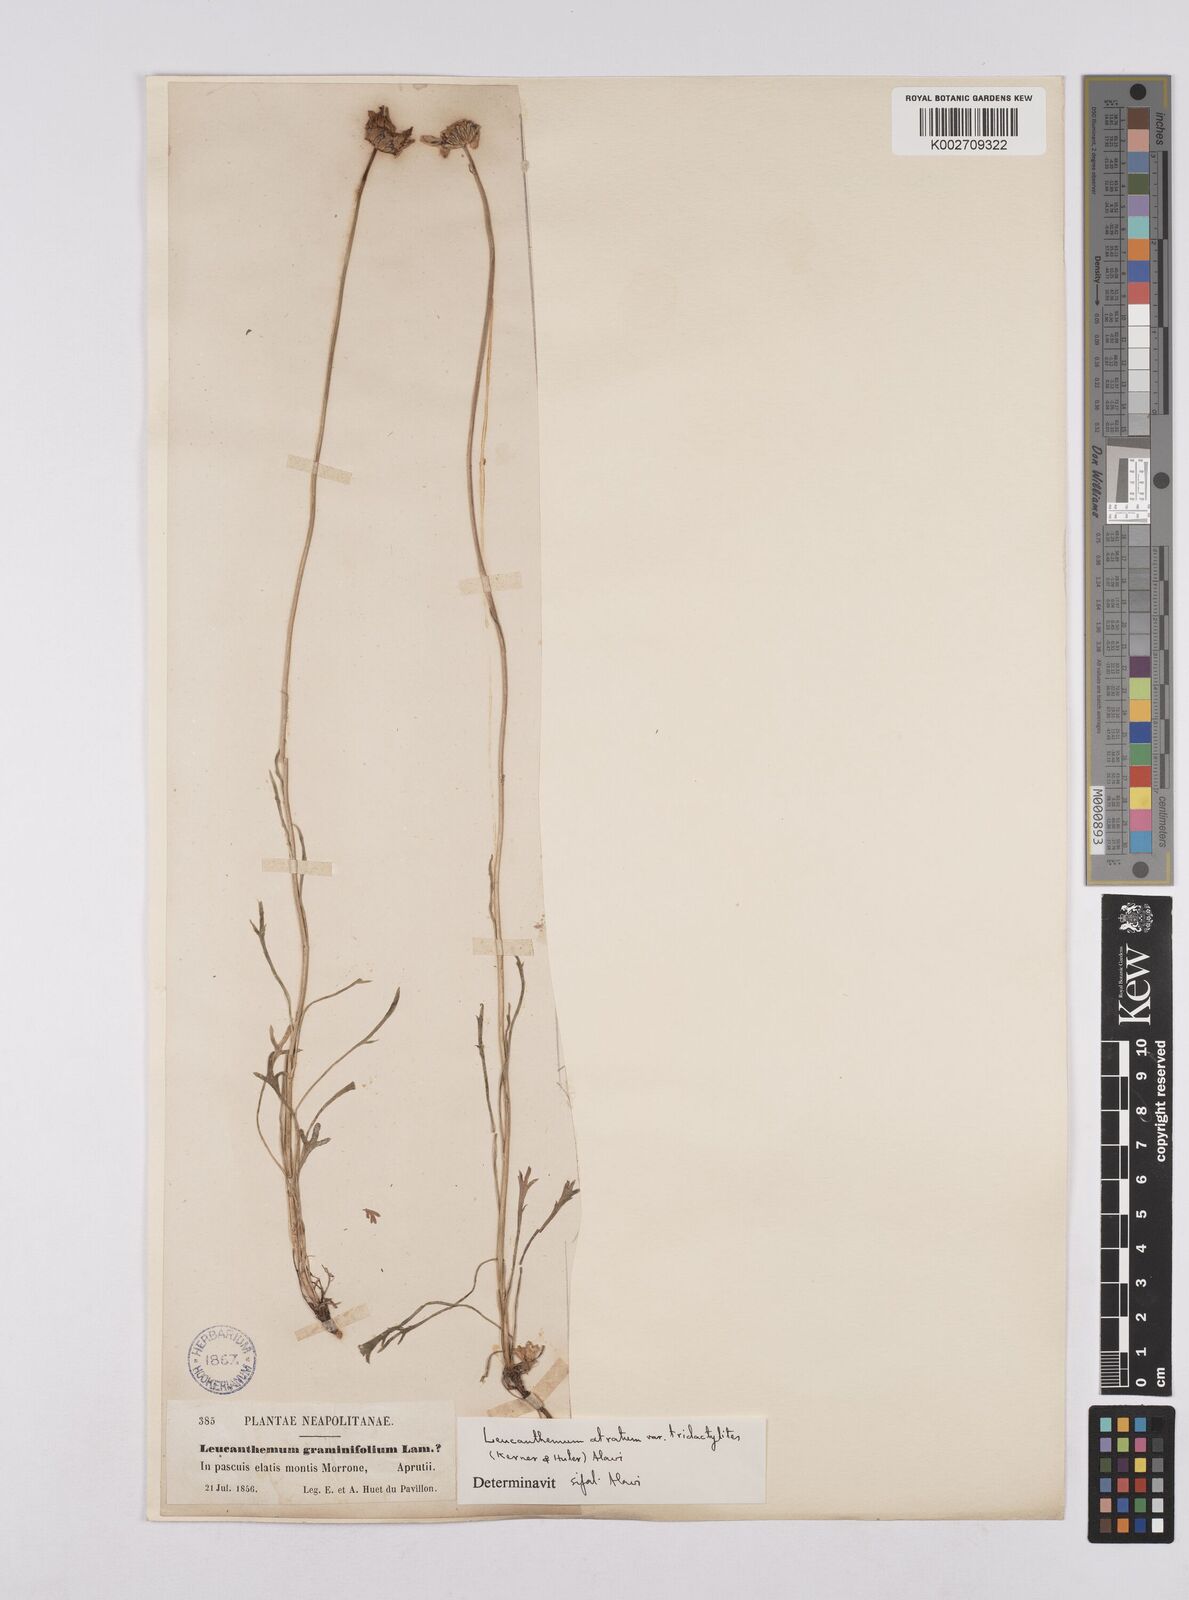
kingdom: Plantae
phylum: Tracheophyta
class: Magnoliopsida
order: Asterales
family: Asteraceae
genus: Leucanthemum
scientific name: Leucanthemum chloroticum
